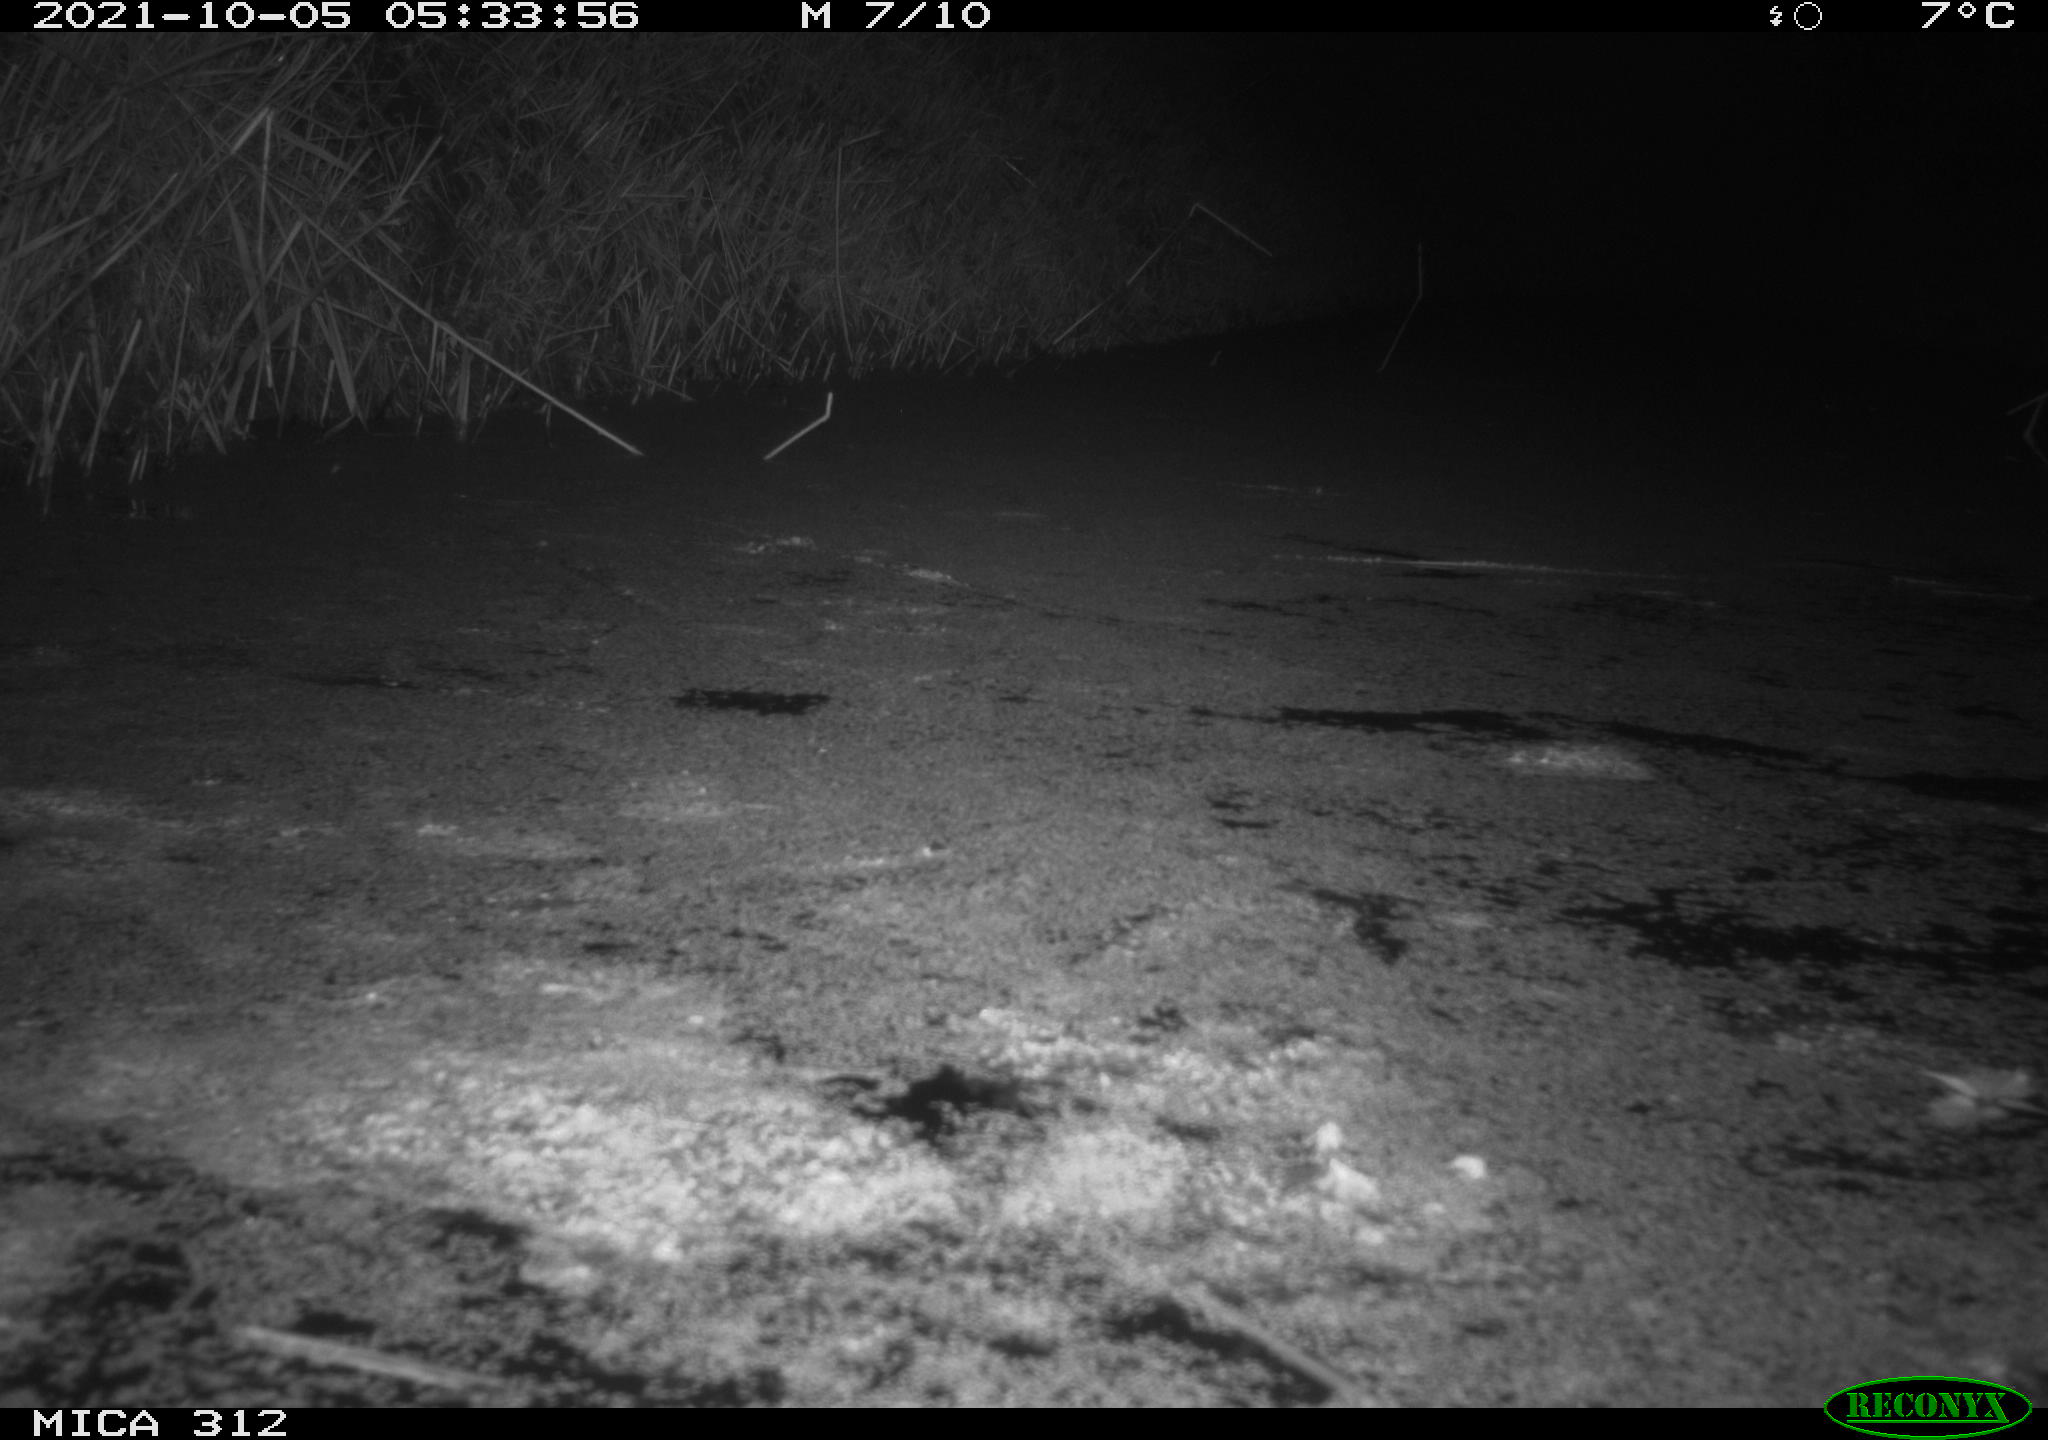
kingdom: Animalia
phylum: Chordata
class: Mammalia
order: Rodentia
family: Muridae
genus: Rattus
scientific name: Rattus norvegicus
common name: Brown rat
